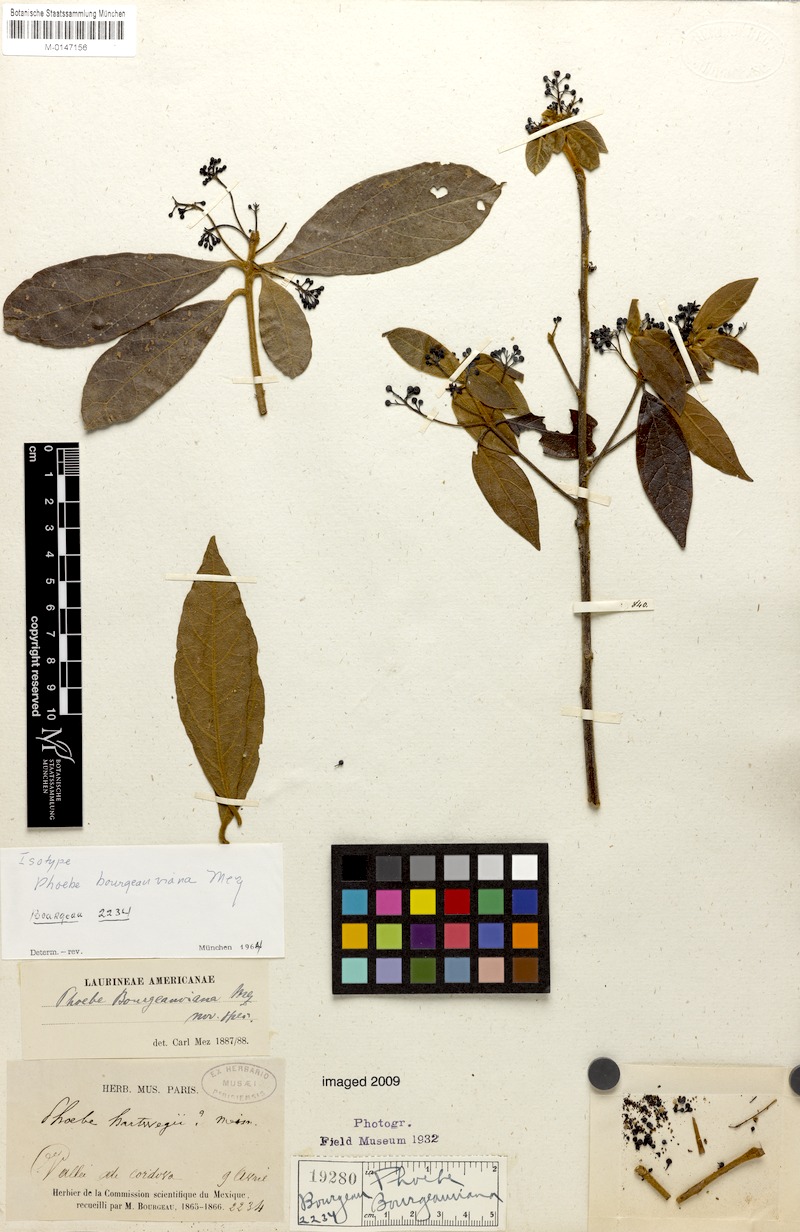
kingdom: Plantae
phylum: Tracheophyta
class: Magnoliopsida
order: Laurales
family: Lauraceae
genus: Ocotea
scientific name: Ocotea bourgeauviana
